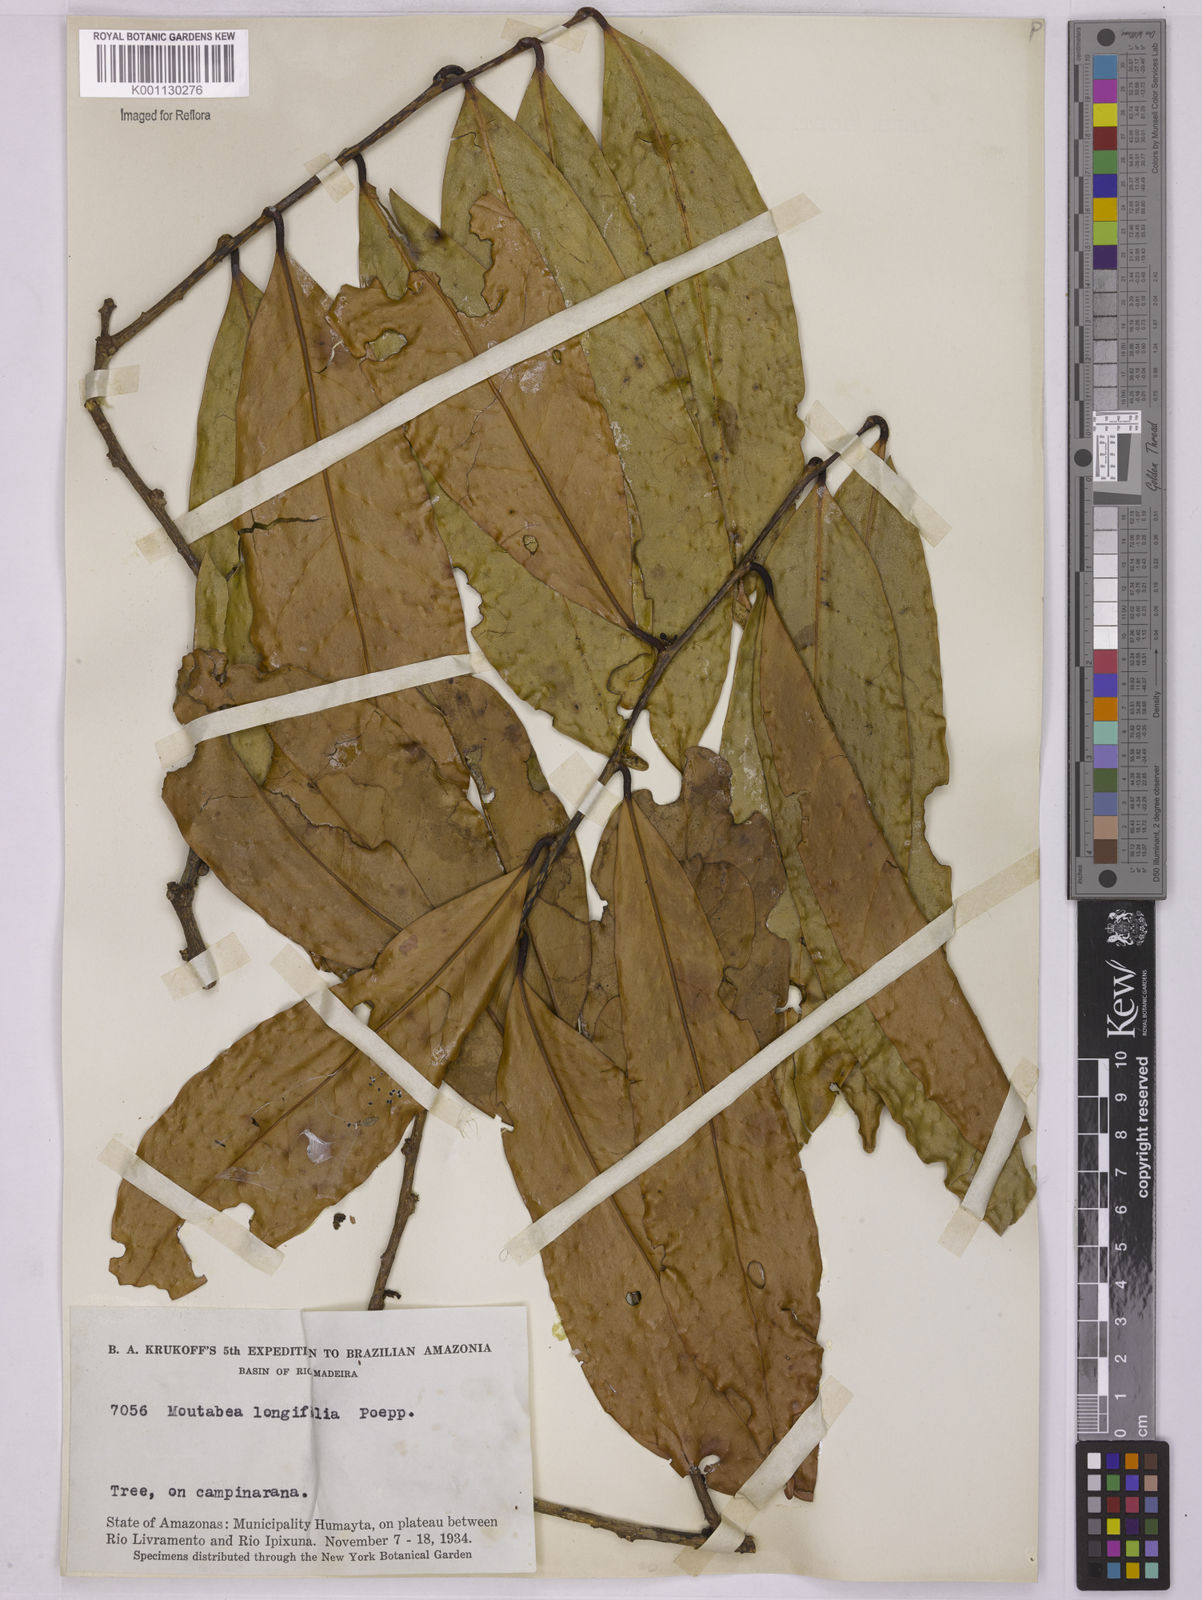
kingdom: Plantae
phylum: Tracheophyta
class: Magnoliopsida
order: Fabales
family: Polygalaceae
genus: Moutabea
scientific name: Moutabea aculeata
